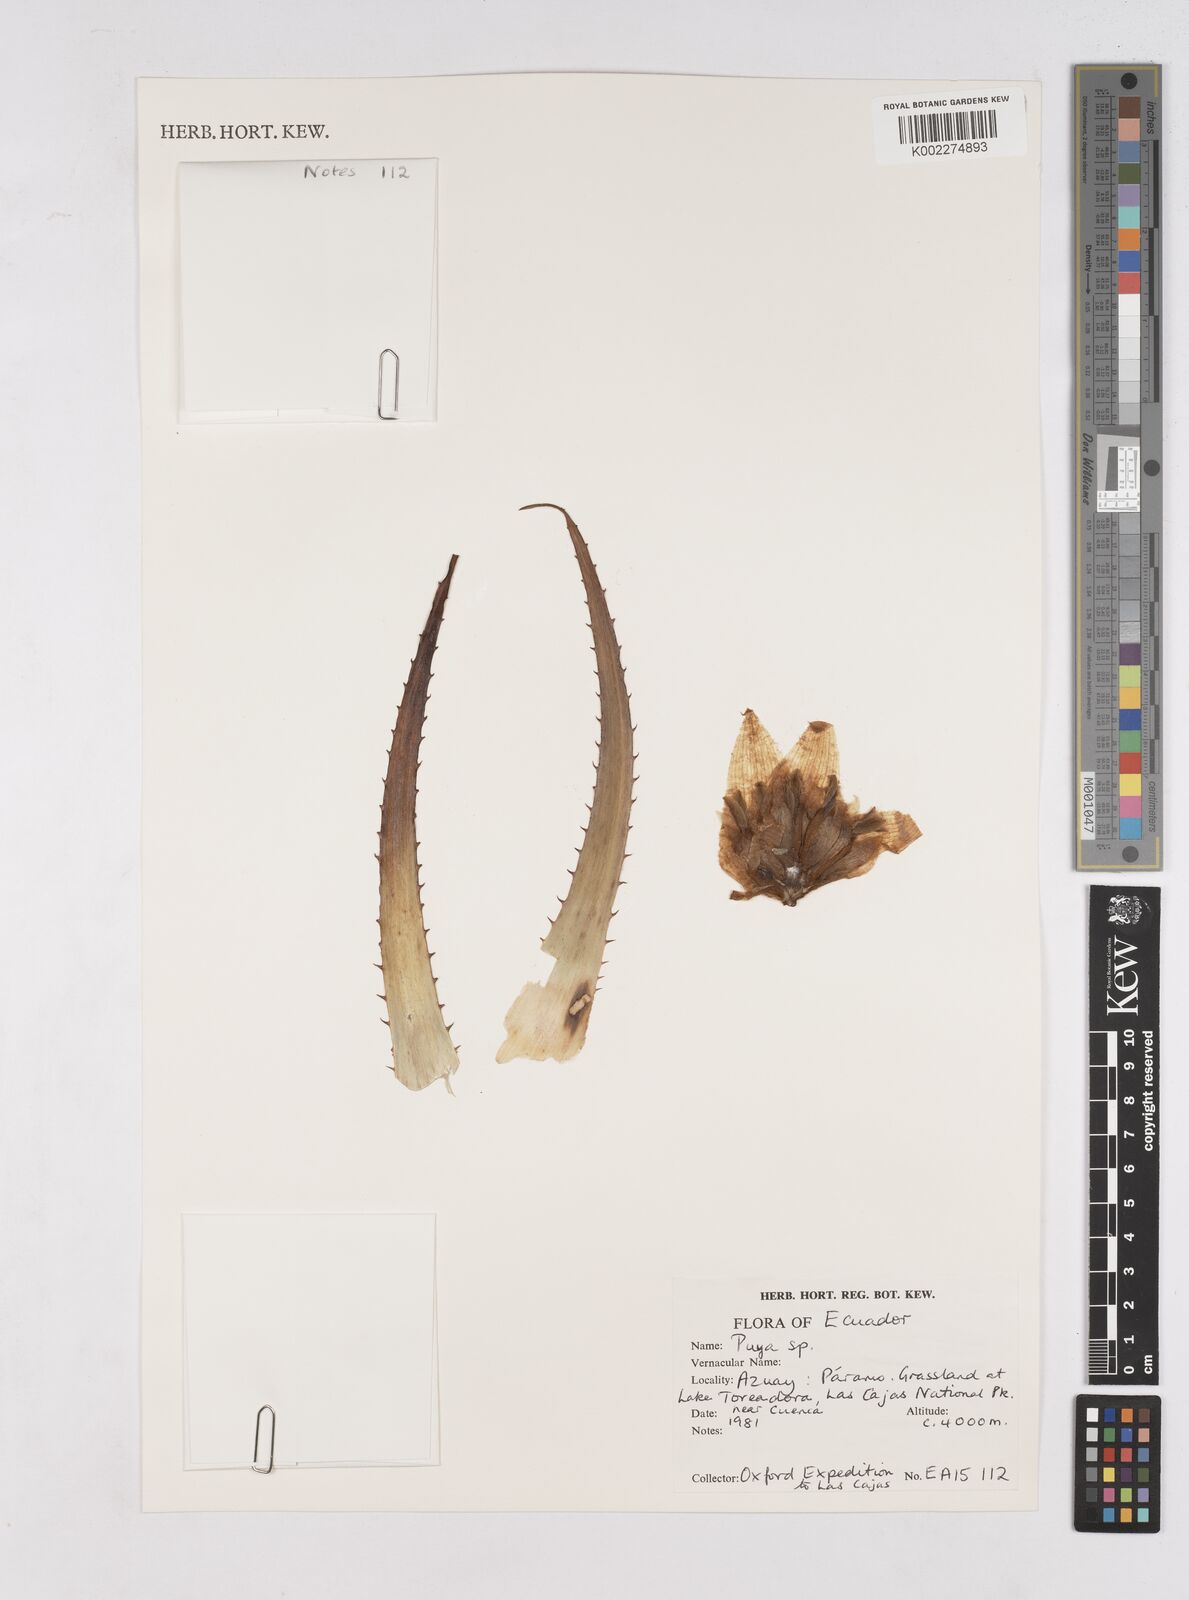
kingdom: Plantae
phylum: Tracheophyta
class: Liliopsida
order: Poales
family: Bromeliaceae
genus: Puya
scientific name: Puya
